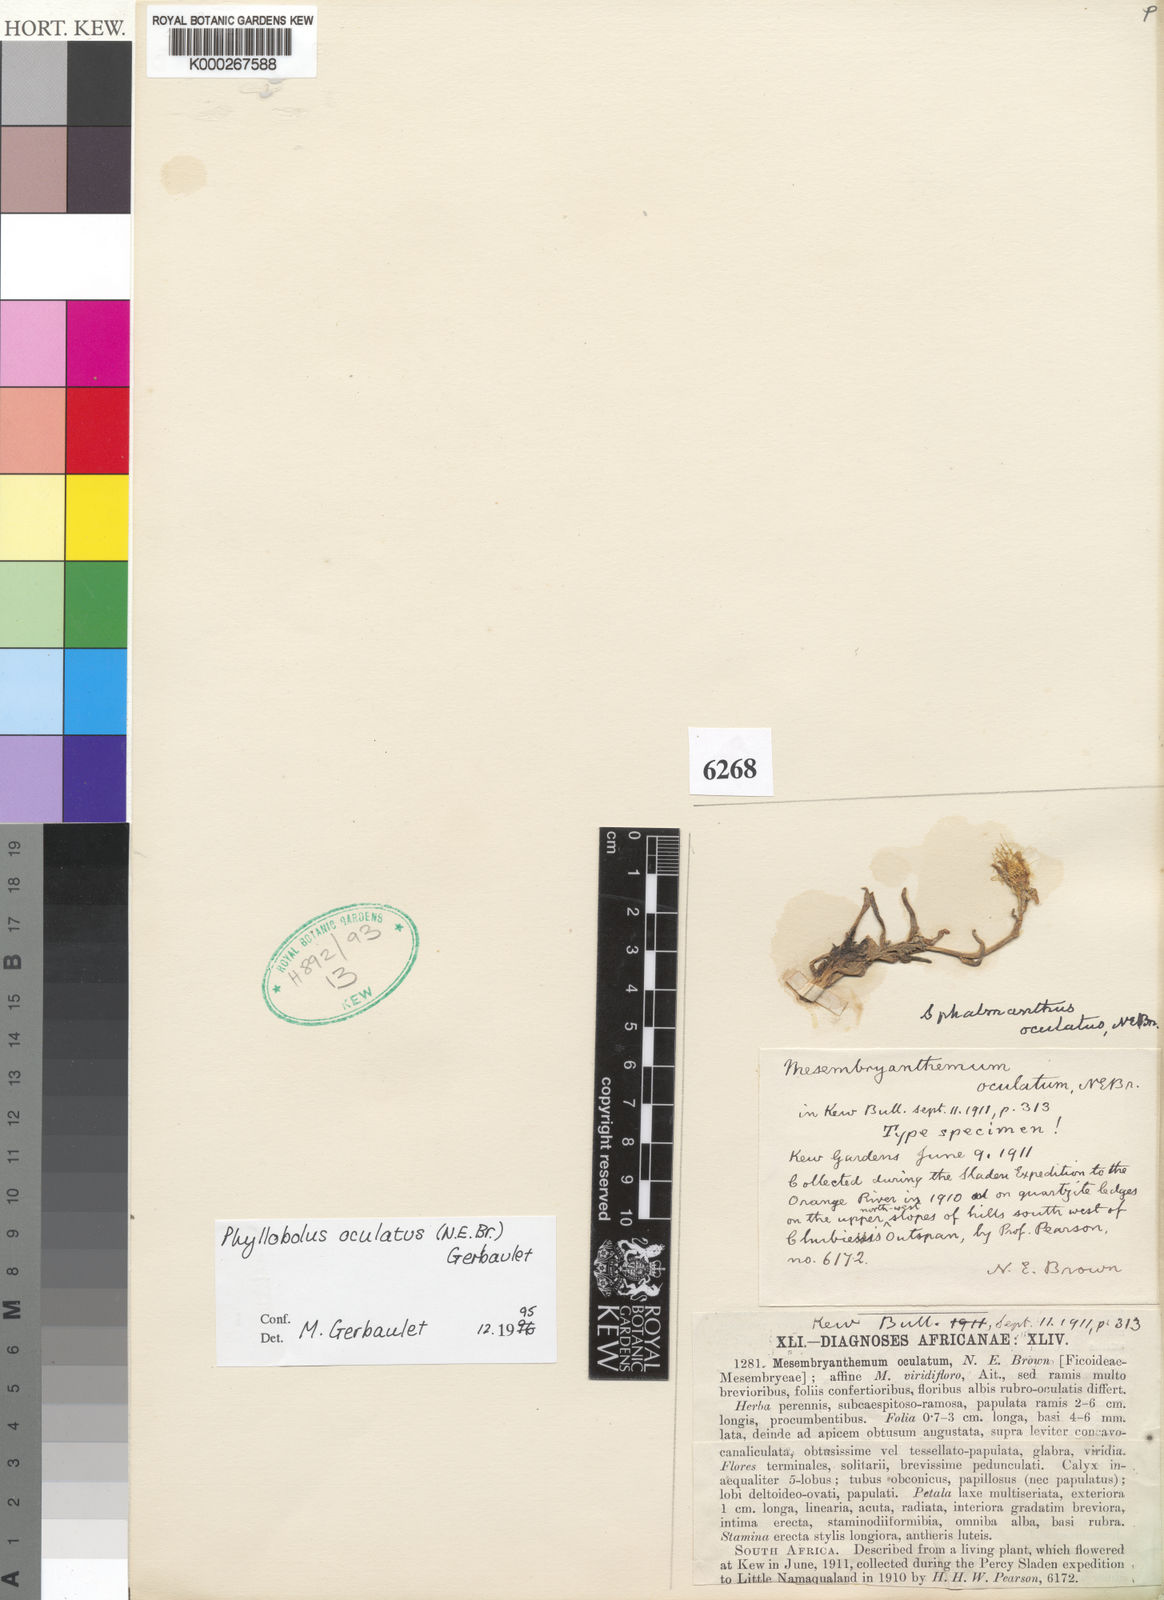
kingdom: Plantae
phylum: Tracheophyta
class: Magnoliopsida
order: Caryophyllales
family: Aizoaceae
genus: Mesembryanthemum
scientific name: Mesembryanthemum oculatum
